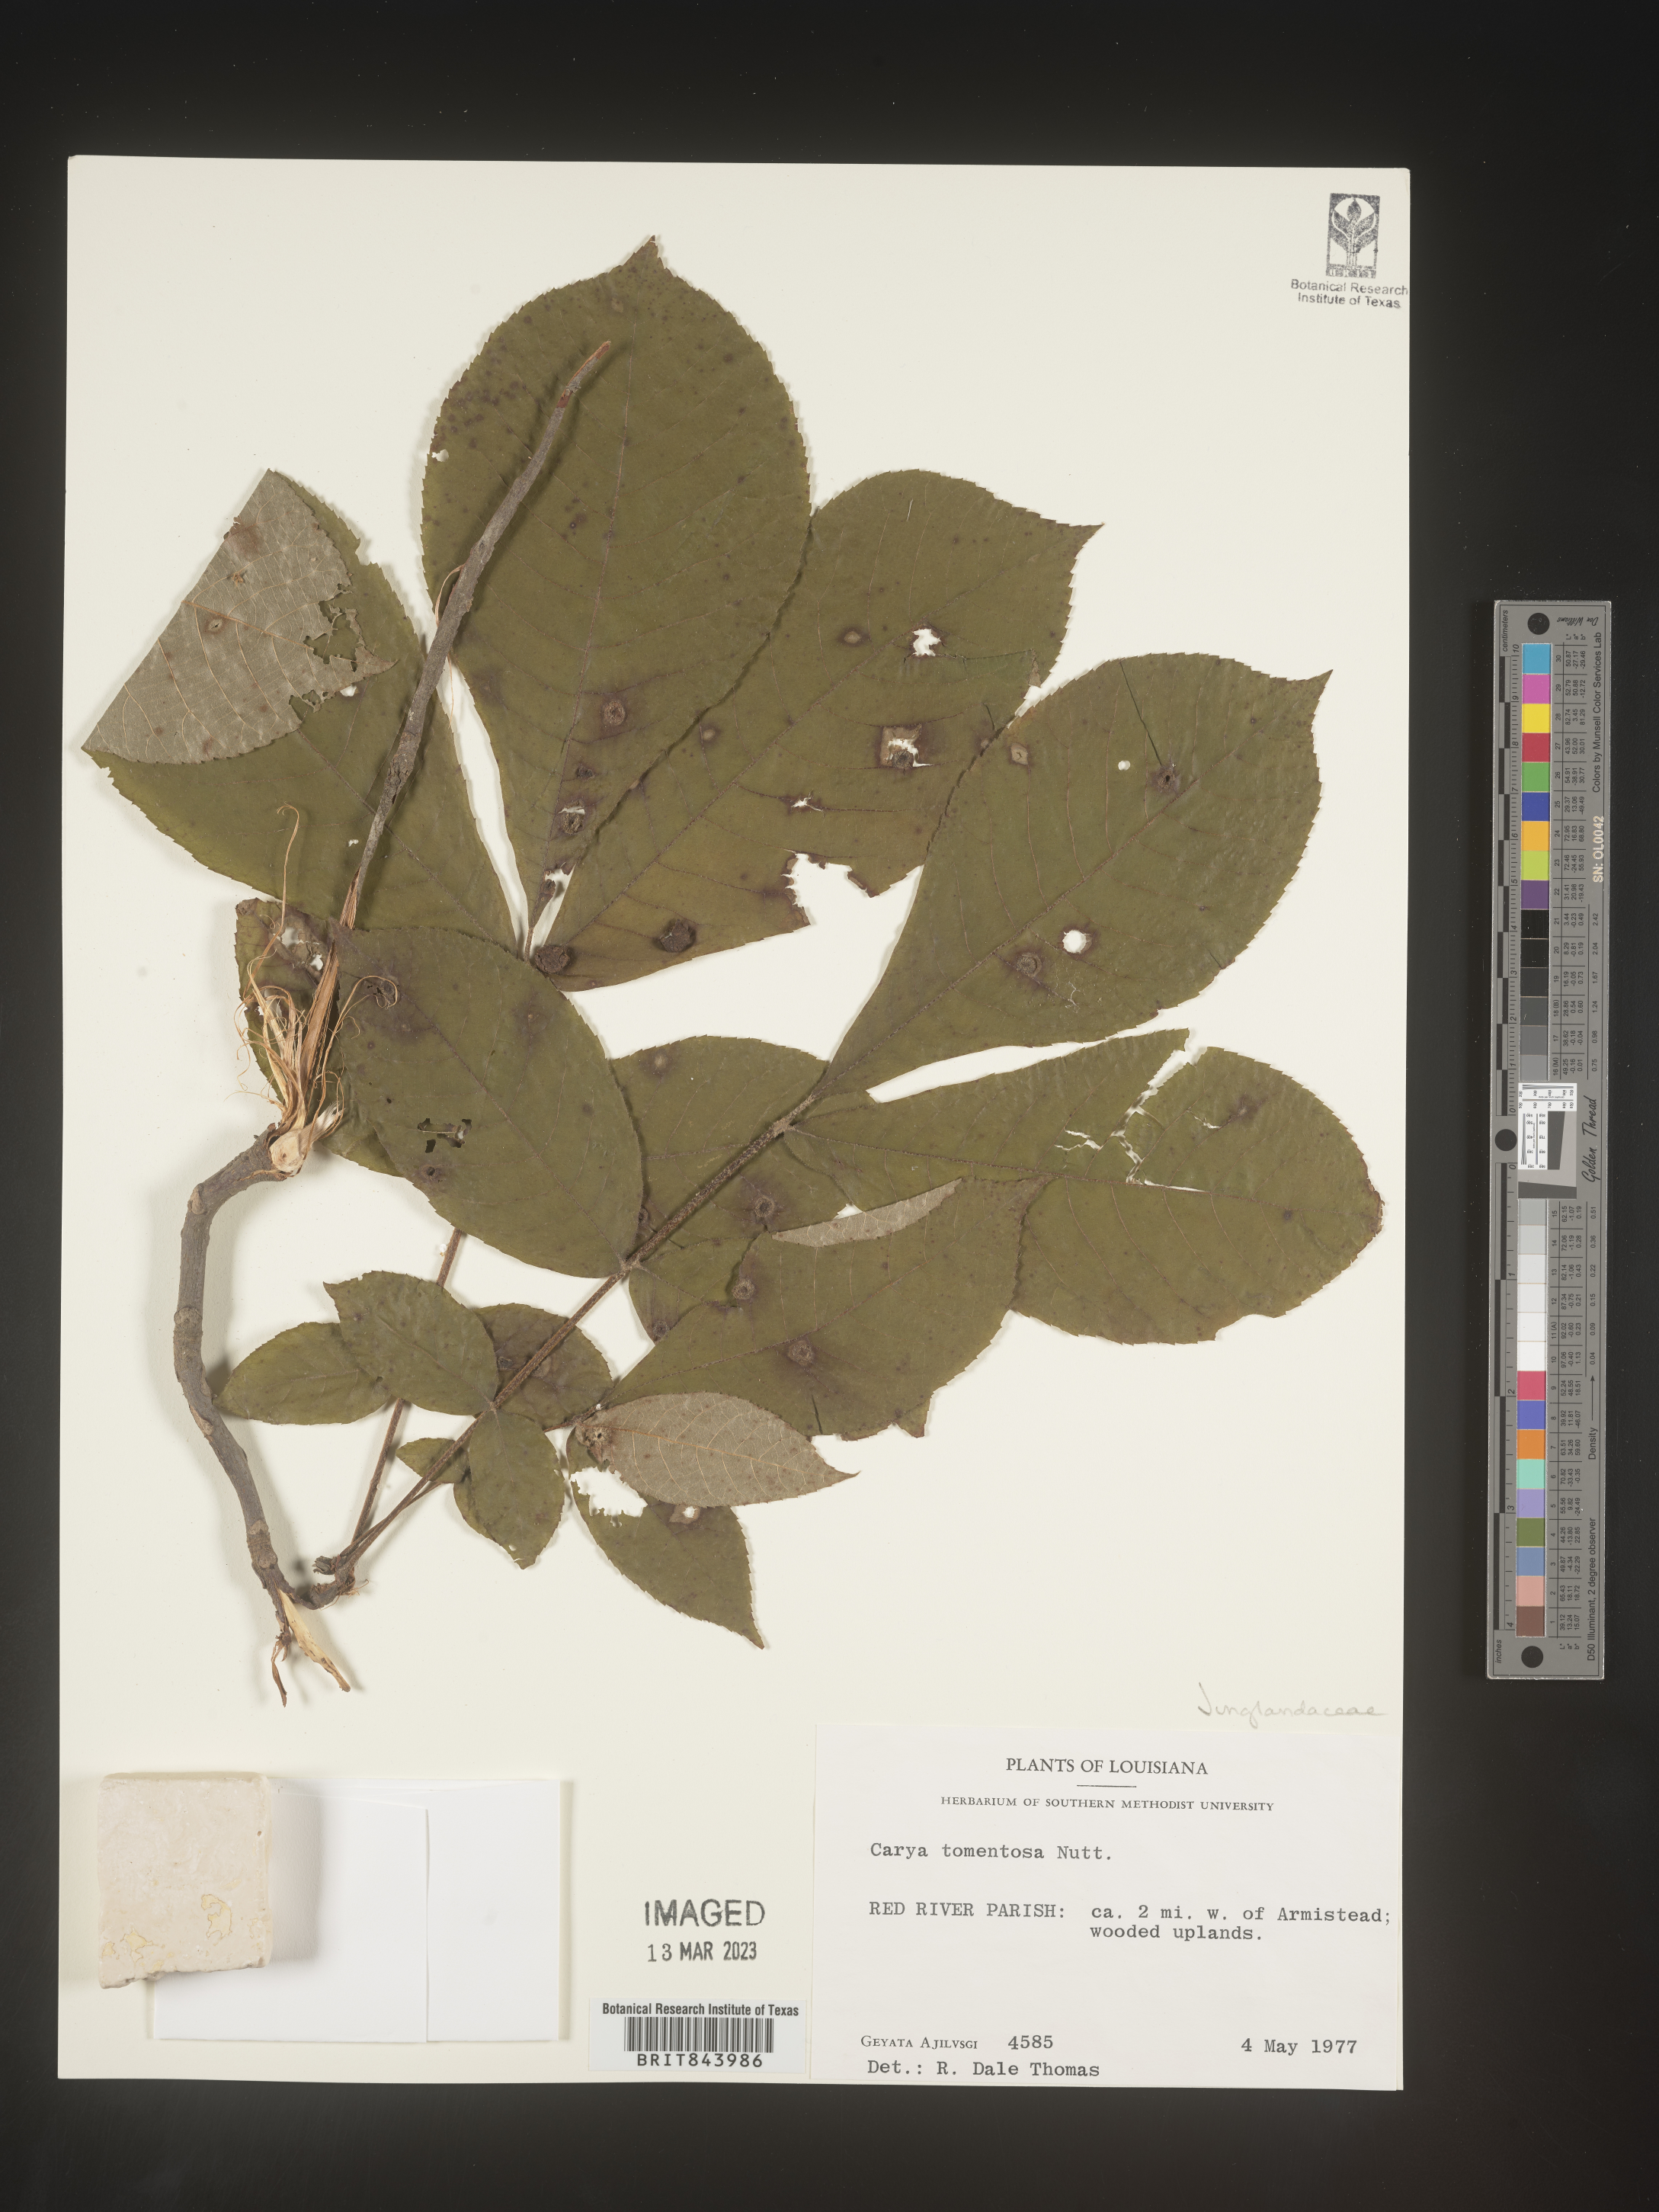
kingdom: Plantae
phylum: Tracheophyta
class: Magnoliopsida
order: Fagales
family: Juglandaceae
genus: Carya
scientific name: Carya alba
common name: Mockernut hickory
